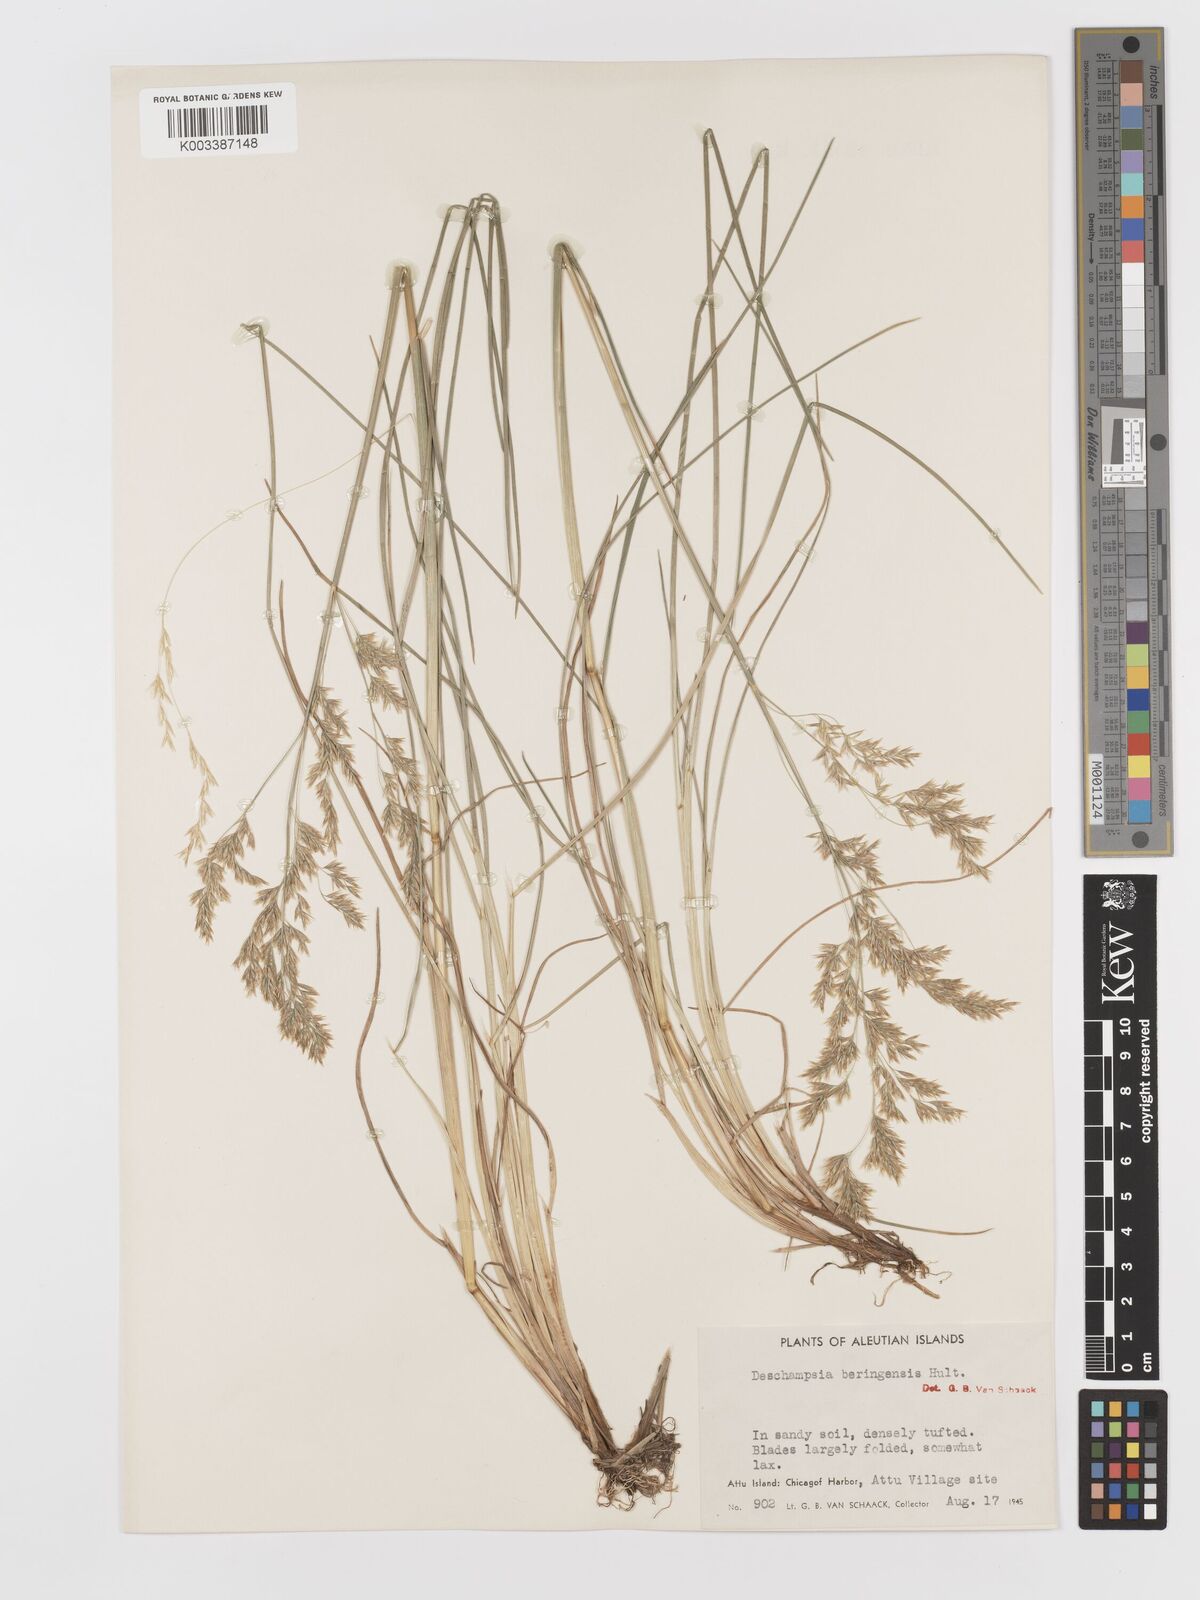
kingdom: Plantae
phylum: Tracheophyta
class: Liliopsida
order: Poales
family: Poaceae
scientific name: Poaceae
